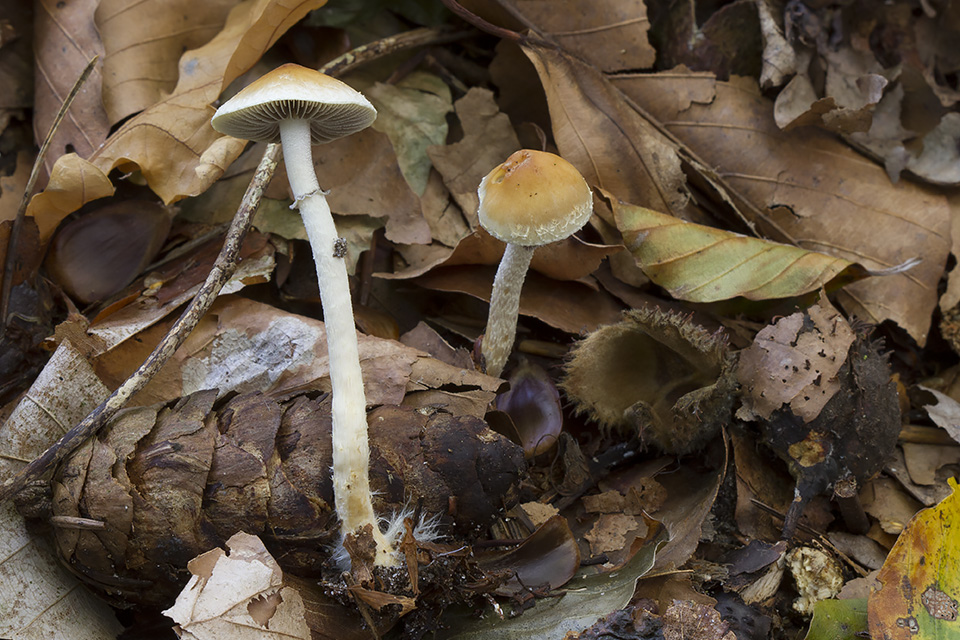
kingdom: Fungi
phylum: Basidiomycota
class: Agaricomycetes
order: Agaricales
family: Strophariaceae
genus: Leratiomyces
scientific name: Leratiomyces squamosus
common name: skællet bredblad
